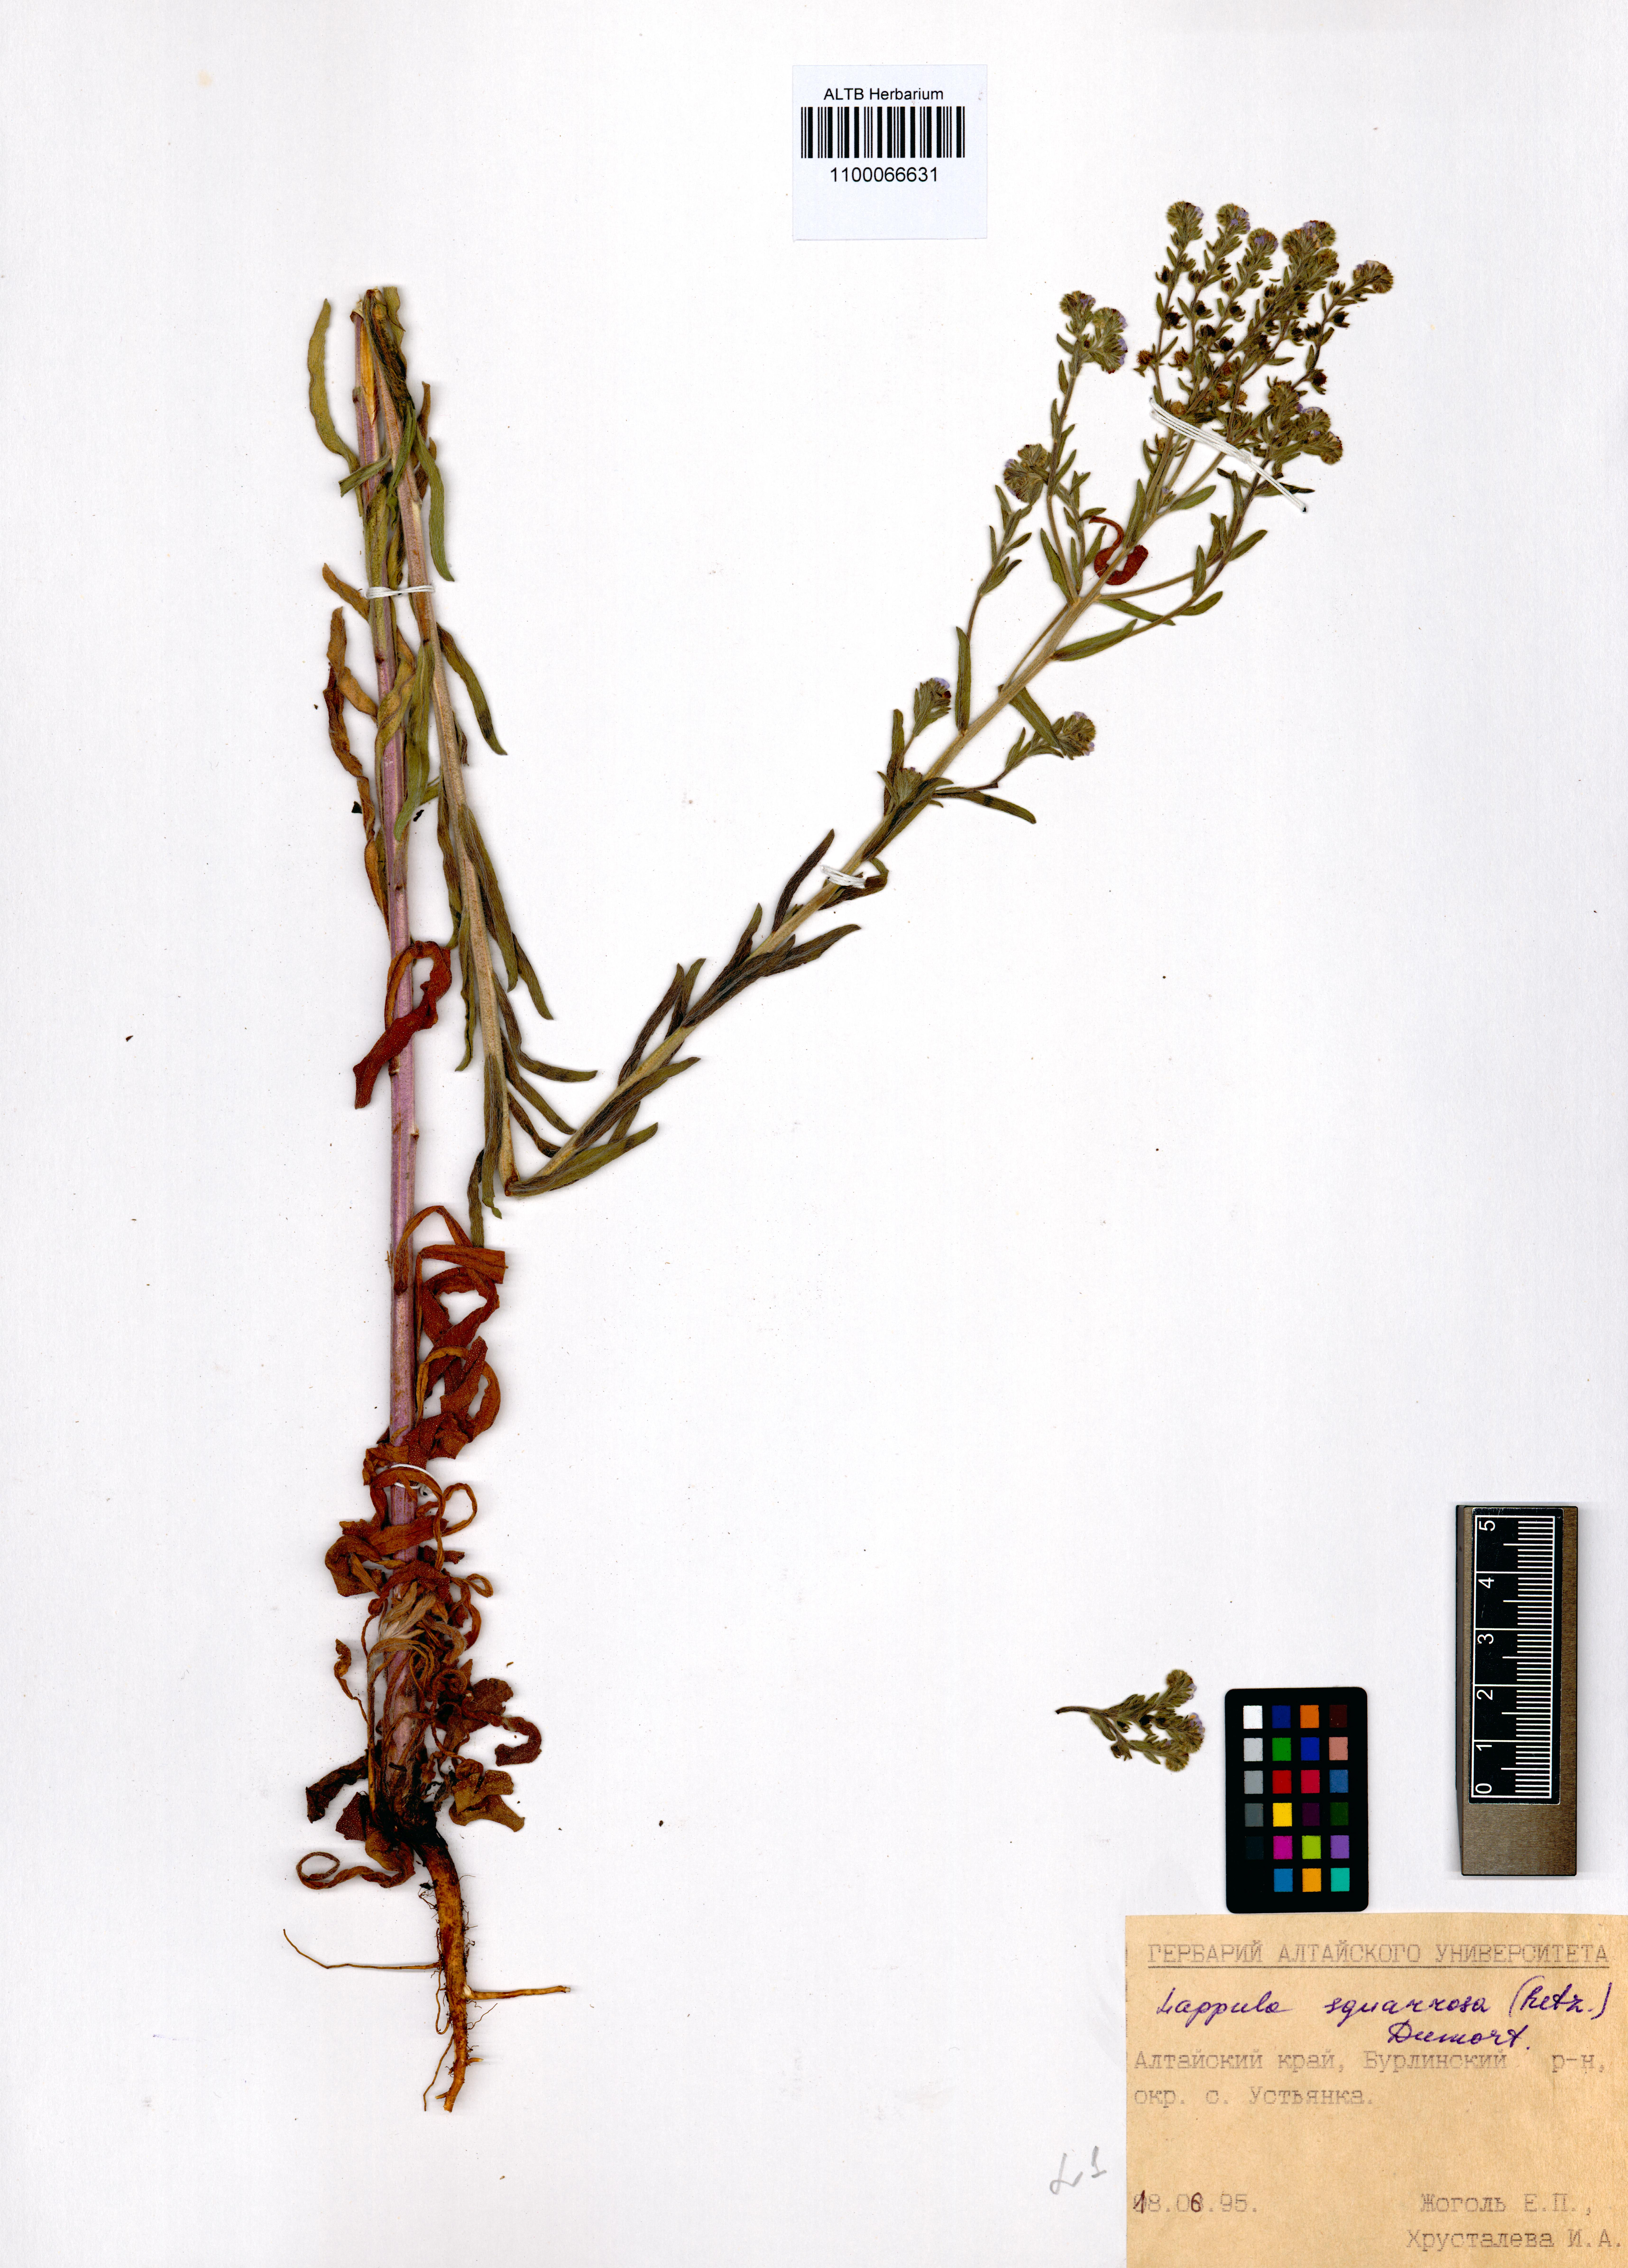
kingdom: Plantae
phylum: Tracheophyta
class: Magnoliopsida
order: Boraginales
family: Boraginaceae
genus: Lappula
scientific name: Lappula squarrosa
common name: European stickseed
